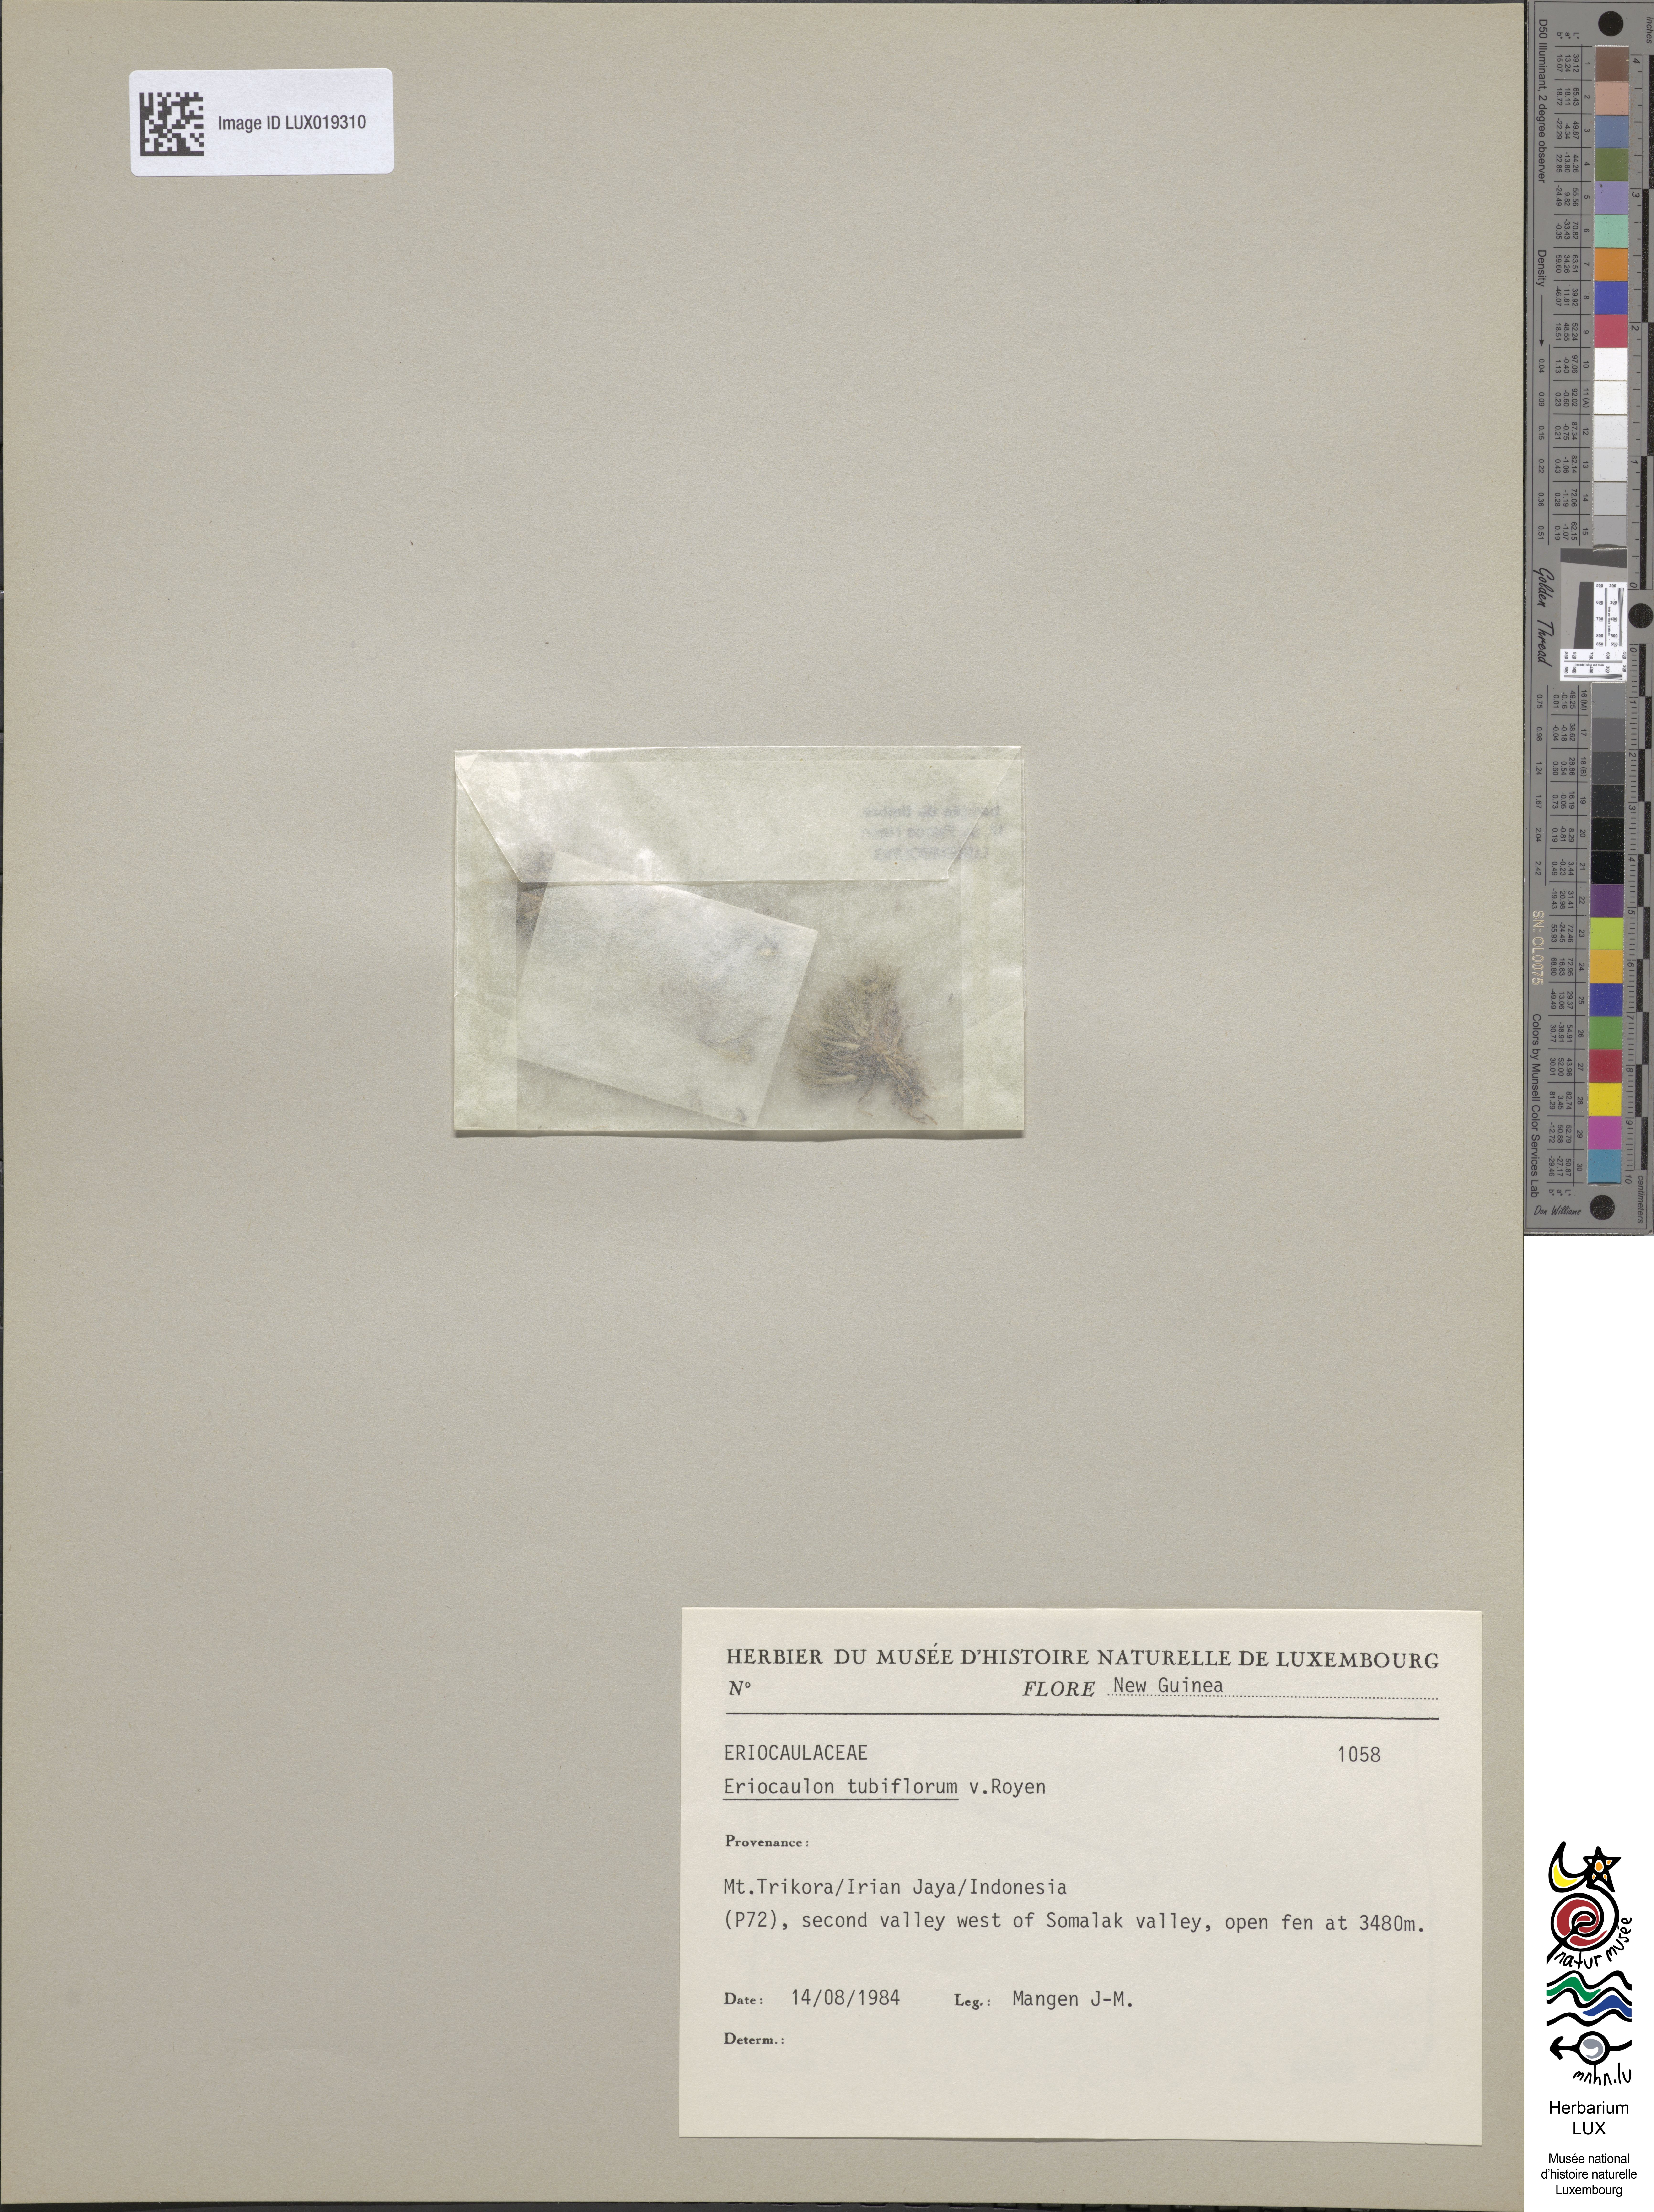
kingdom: Plantae
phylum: Tracheophyta
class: Liliopsida
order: Poales
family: Eriocaulaceae
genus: Eriocaulon
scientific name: Eriocaulon tubiflorum
